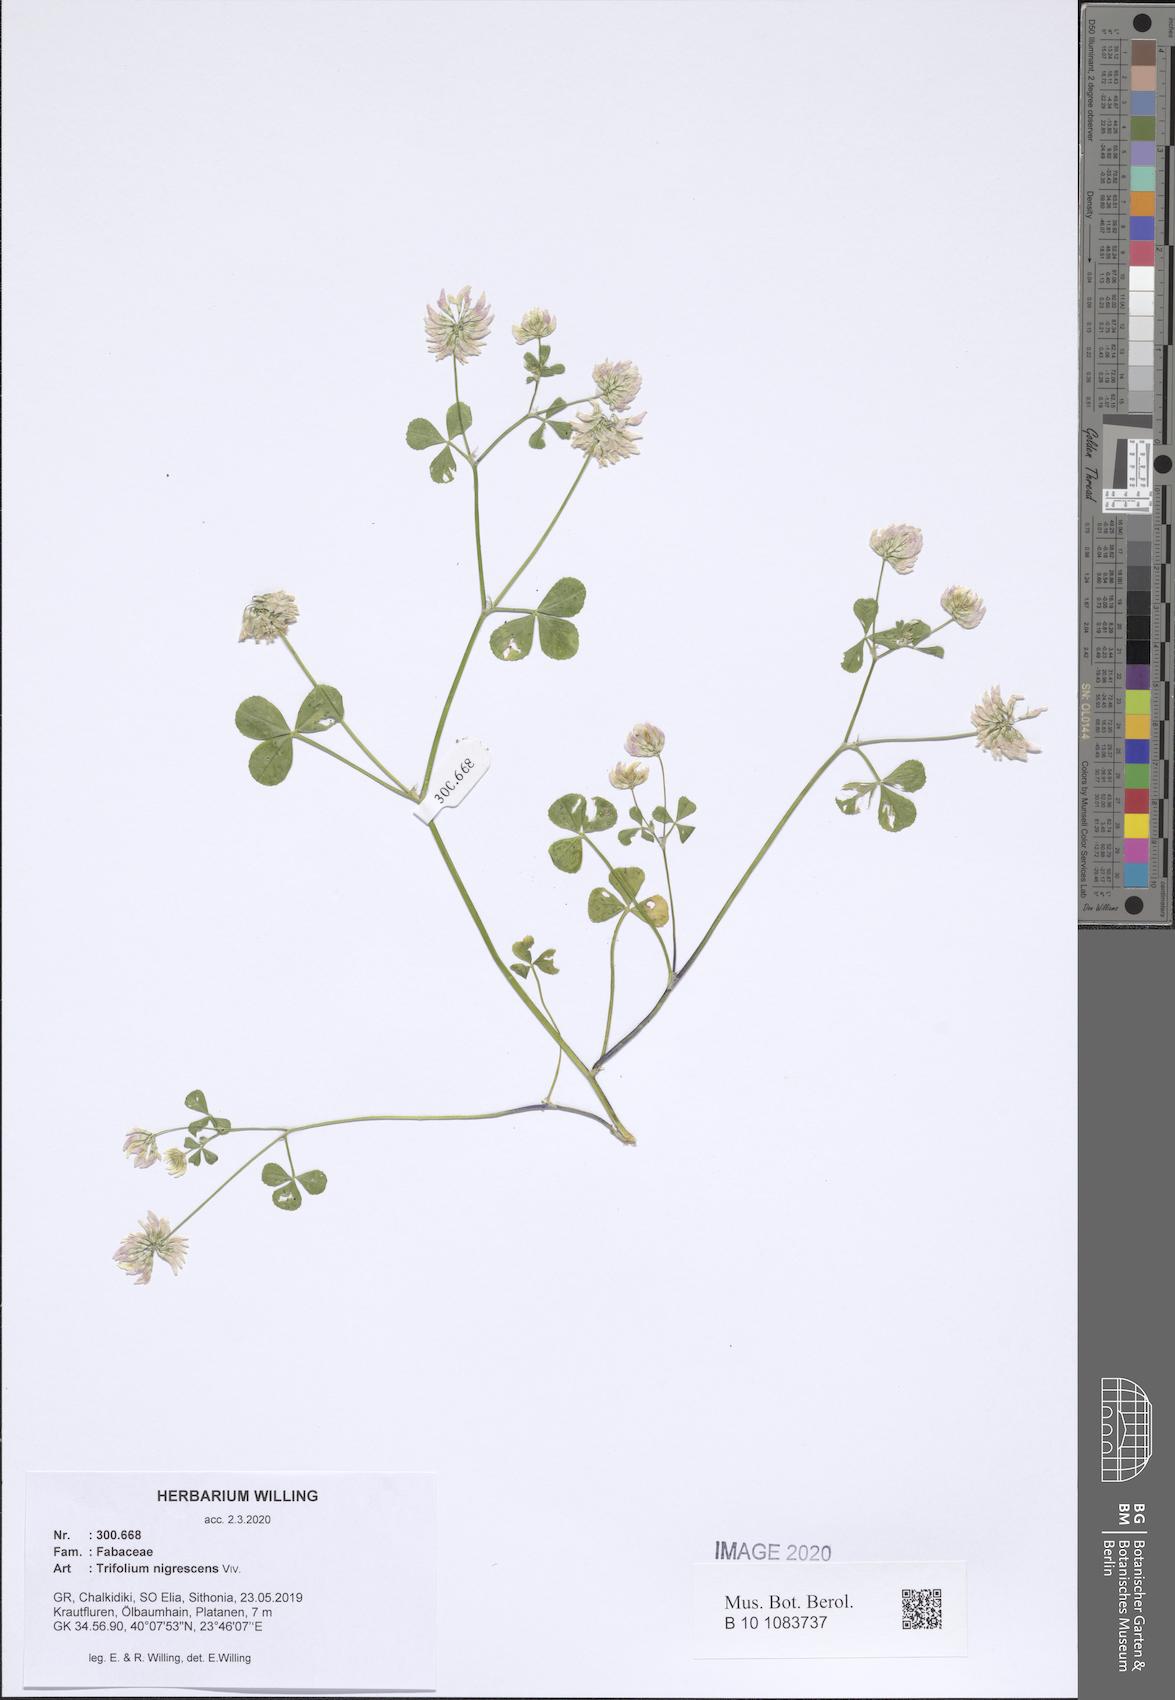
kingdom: Plantae
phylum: Tracheophyta
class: Magnoliopsida
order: Fabales
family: Fabaceae
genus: Trifolium
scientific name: Trifolium nigrescens
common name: Small white clover
